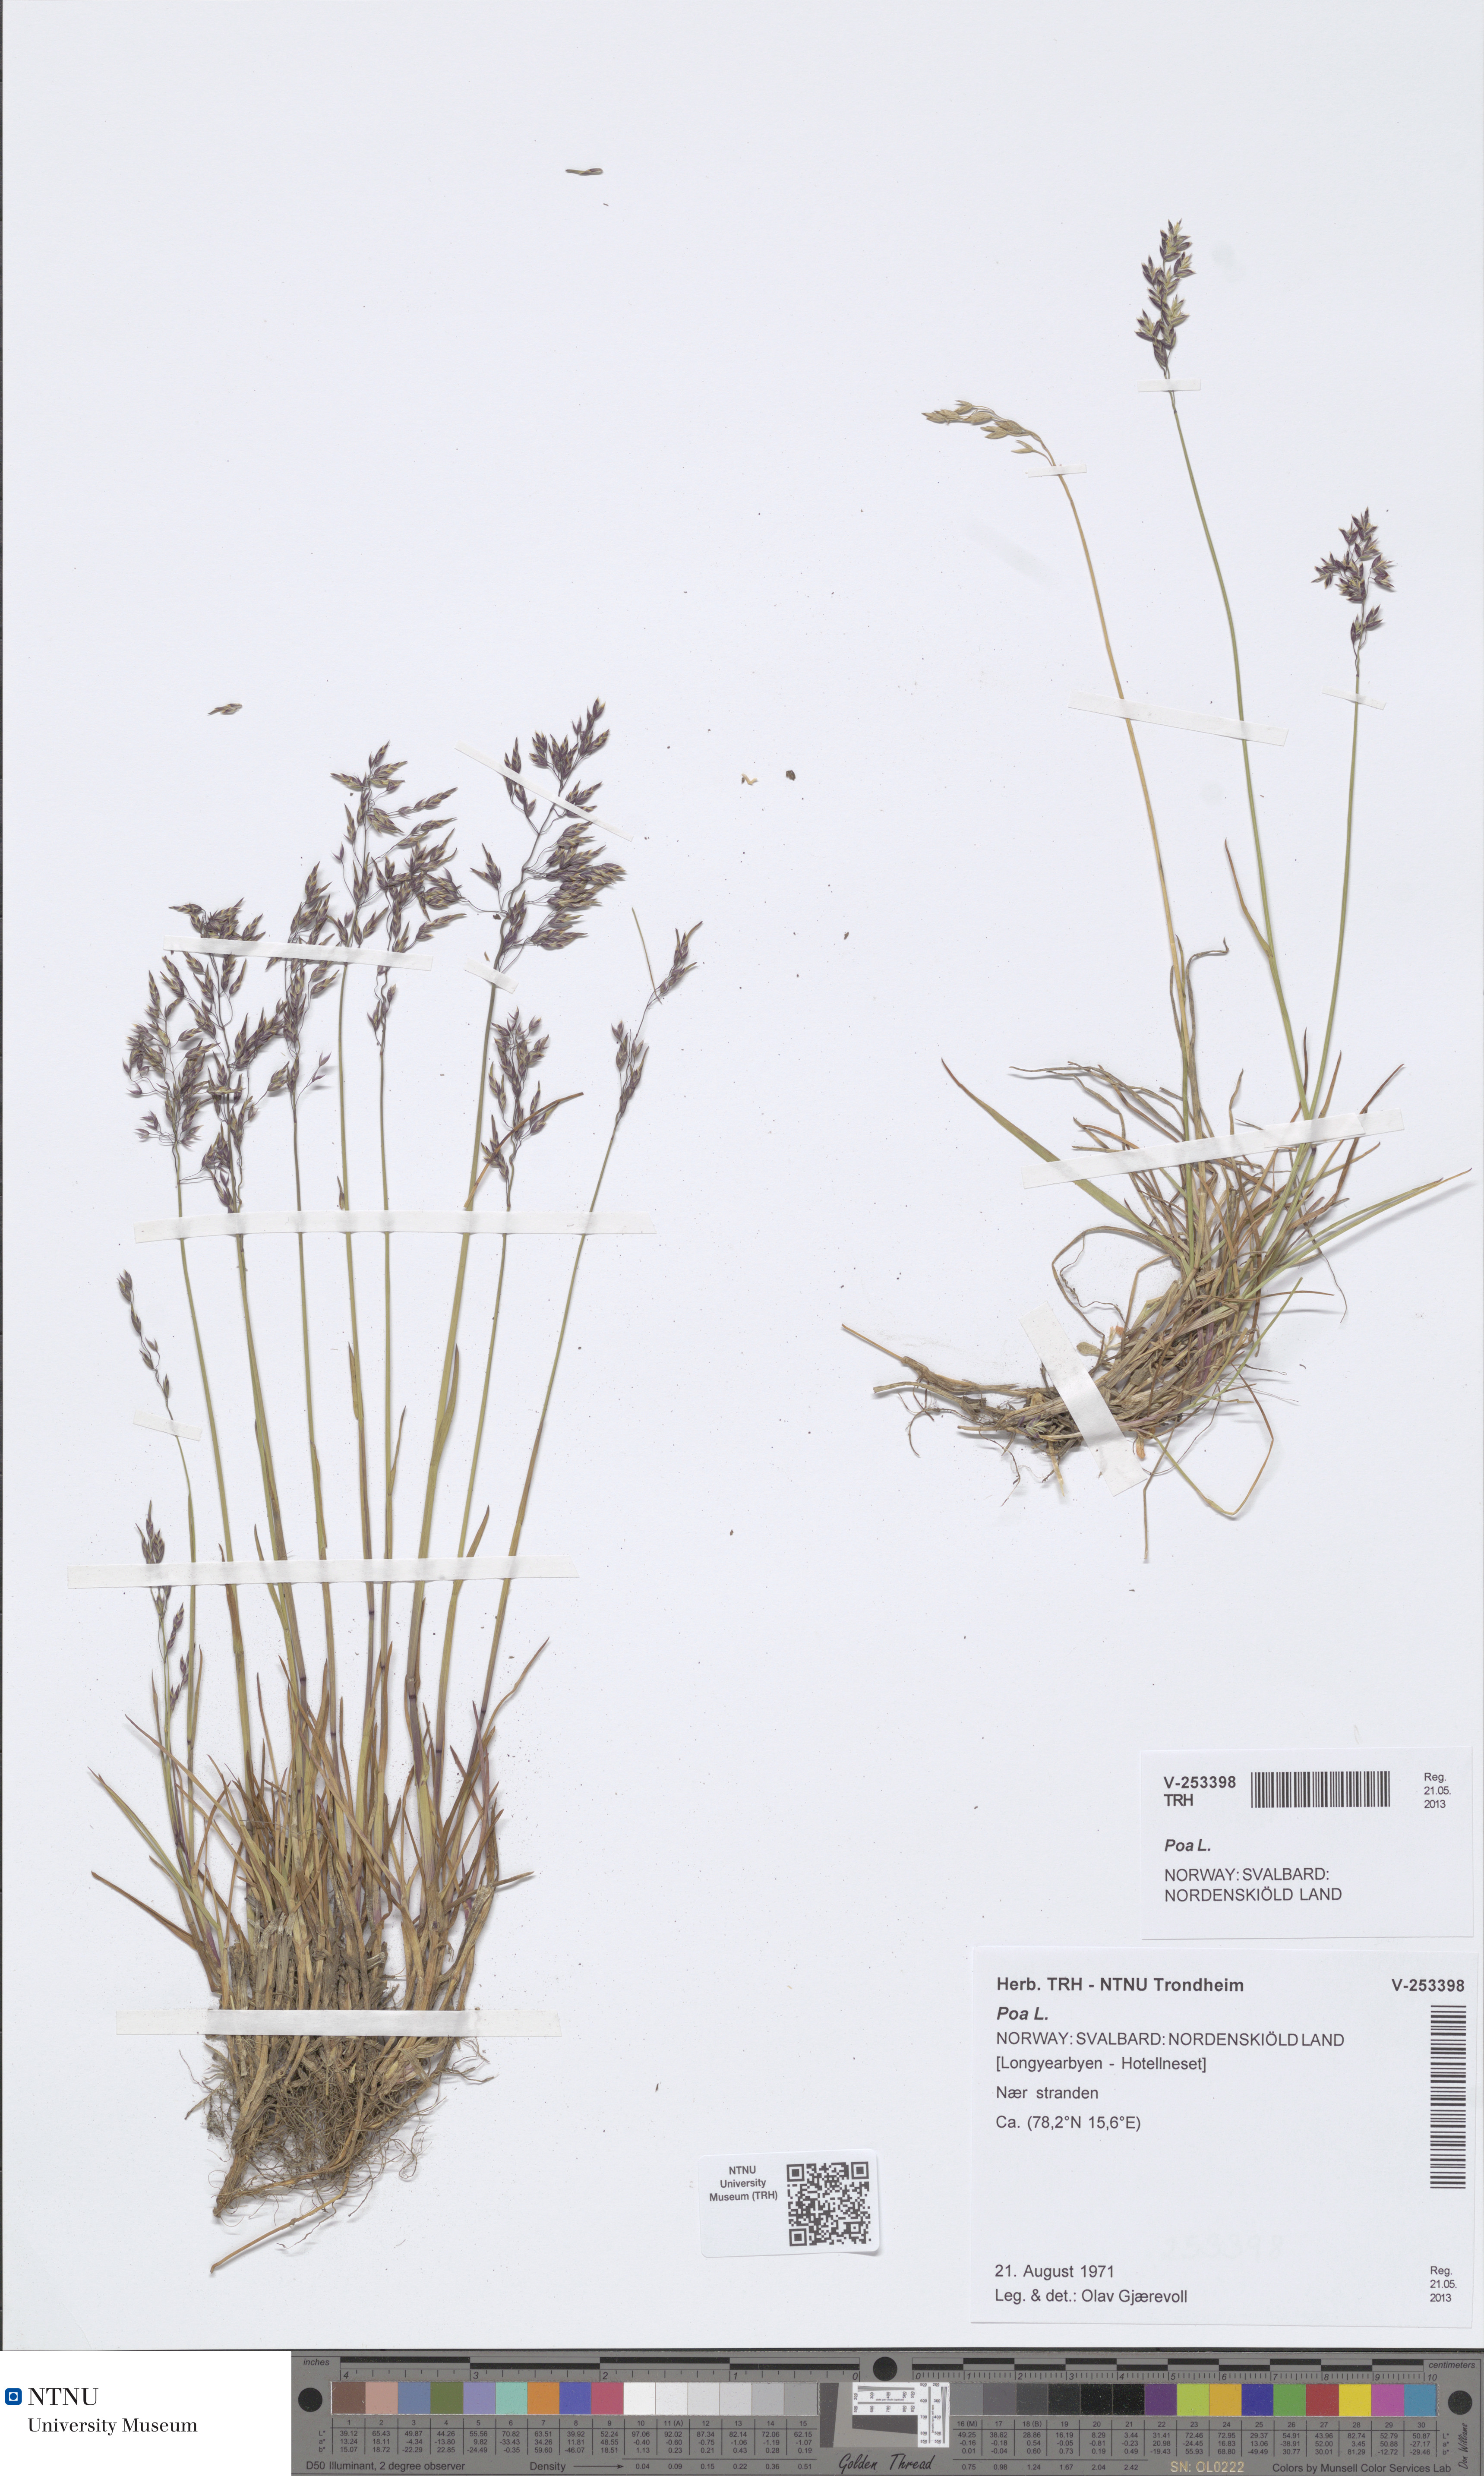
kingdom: Plantae
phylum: Tracheophyta
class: Liliopsida
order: Poales
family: Poaceae
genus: Poa
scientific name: Poa
